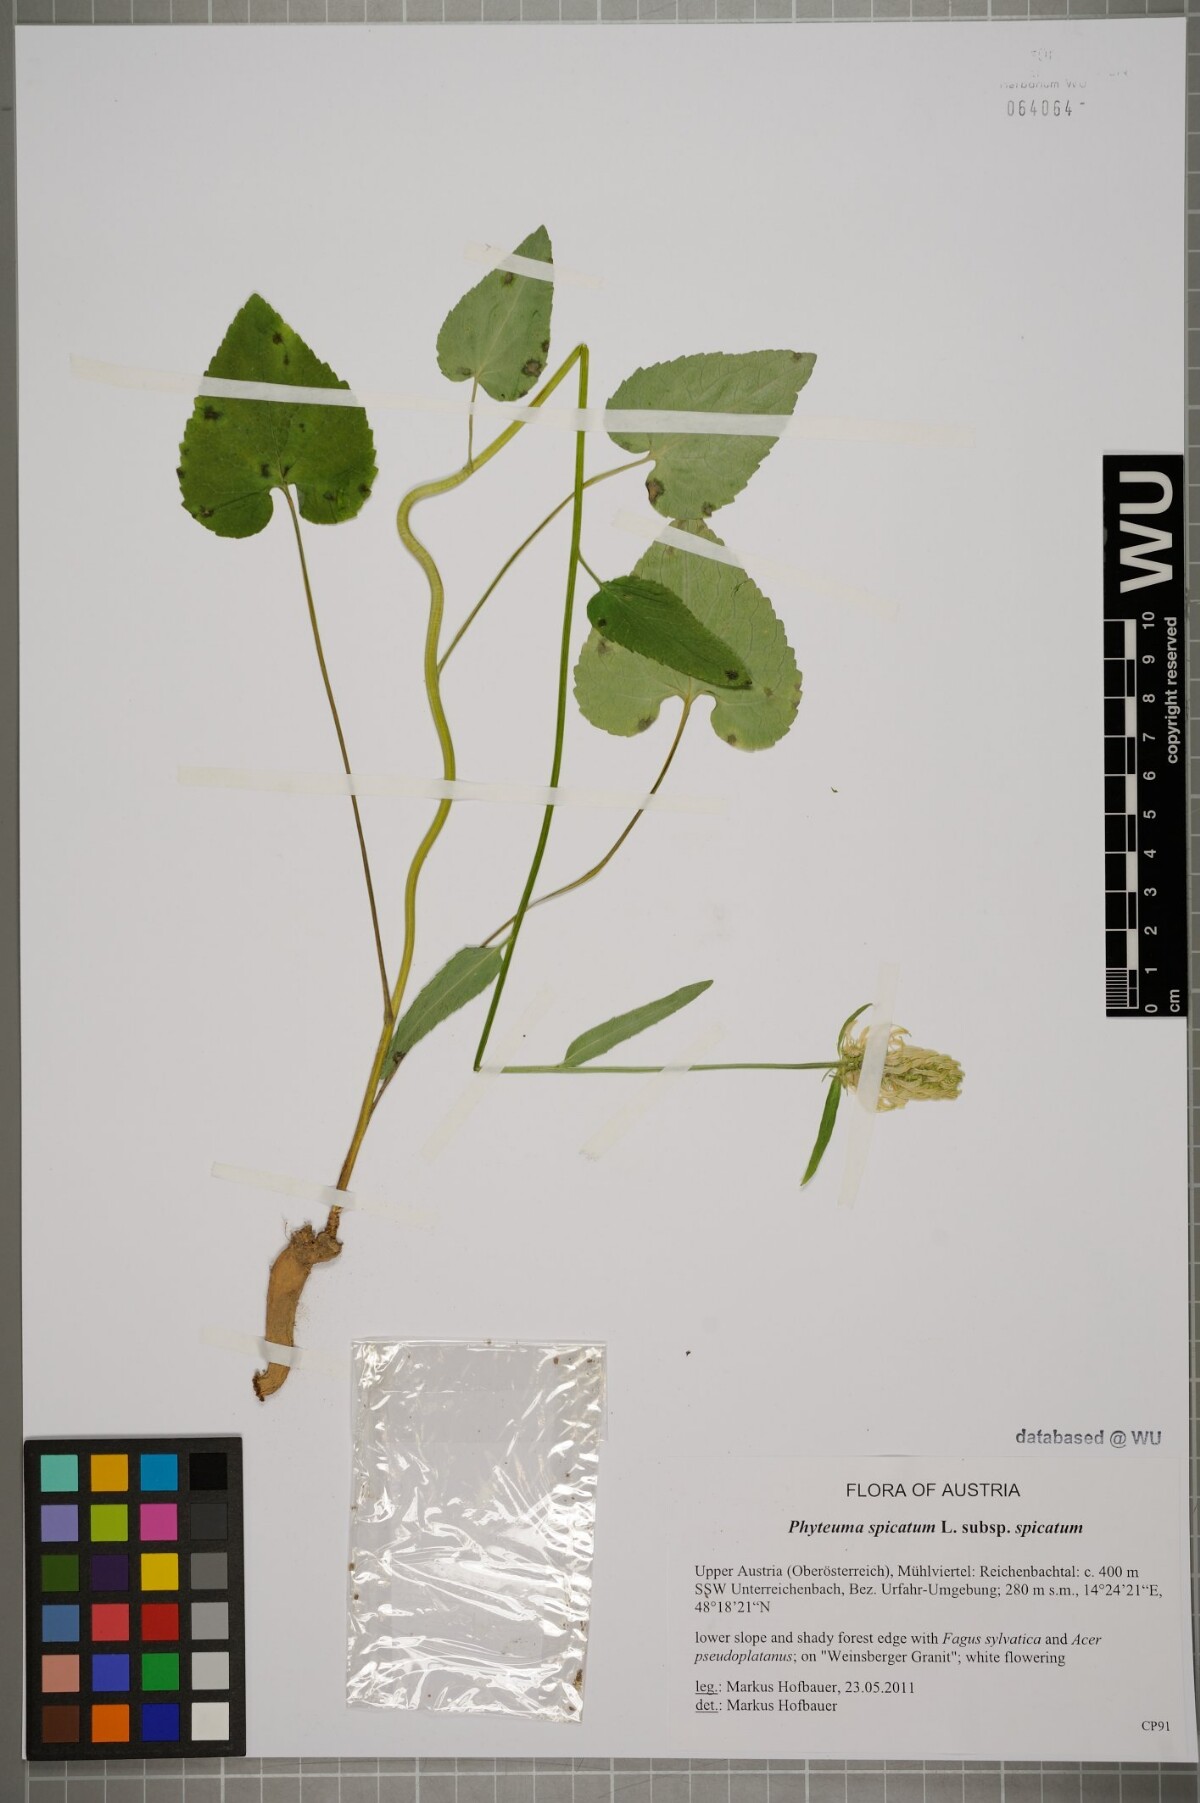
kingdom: Plantae
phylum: Tracheophyta
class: Magnoliopsida
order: Asterales
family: Campanulaceae
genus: Phyteuma
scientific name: Phyteuma spicatum
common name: Spiked rampion
